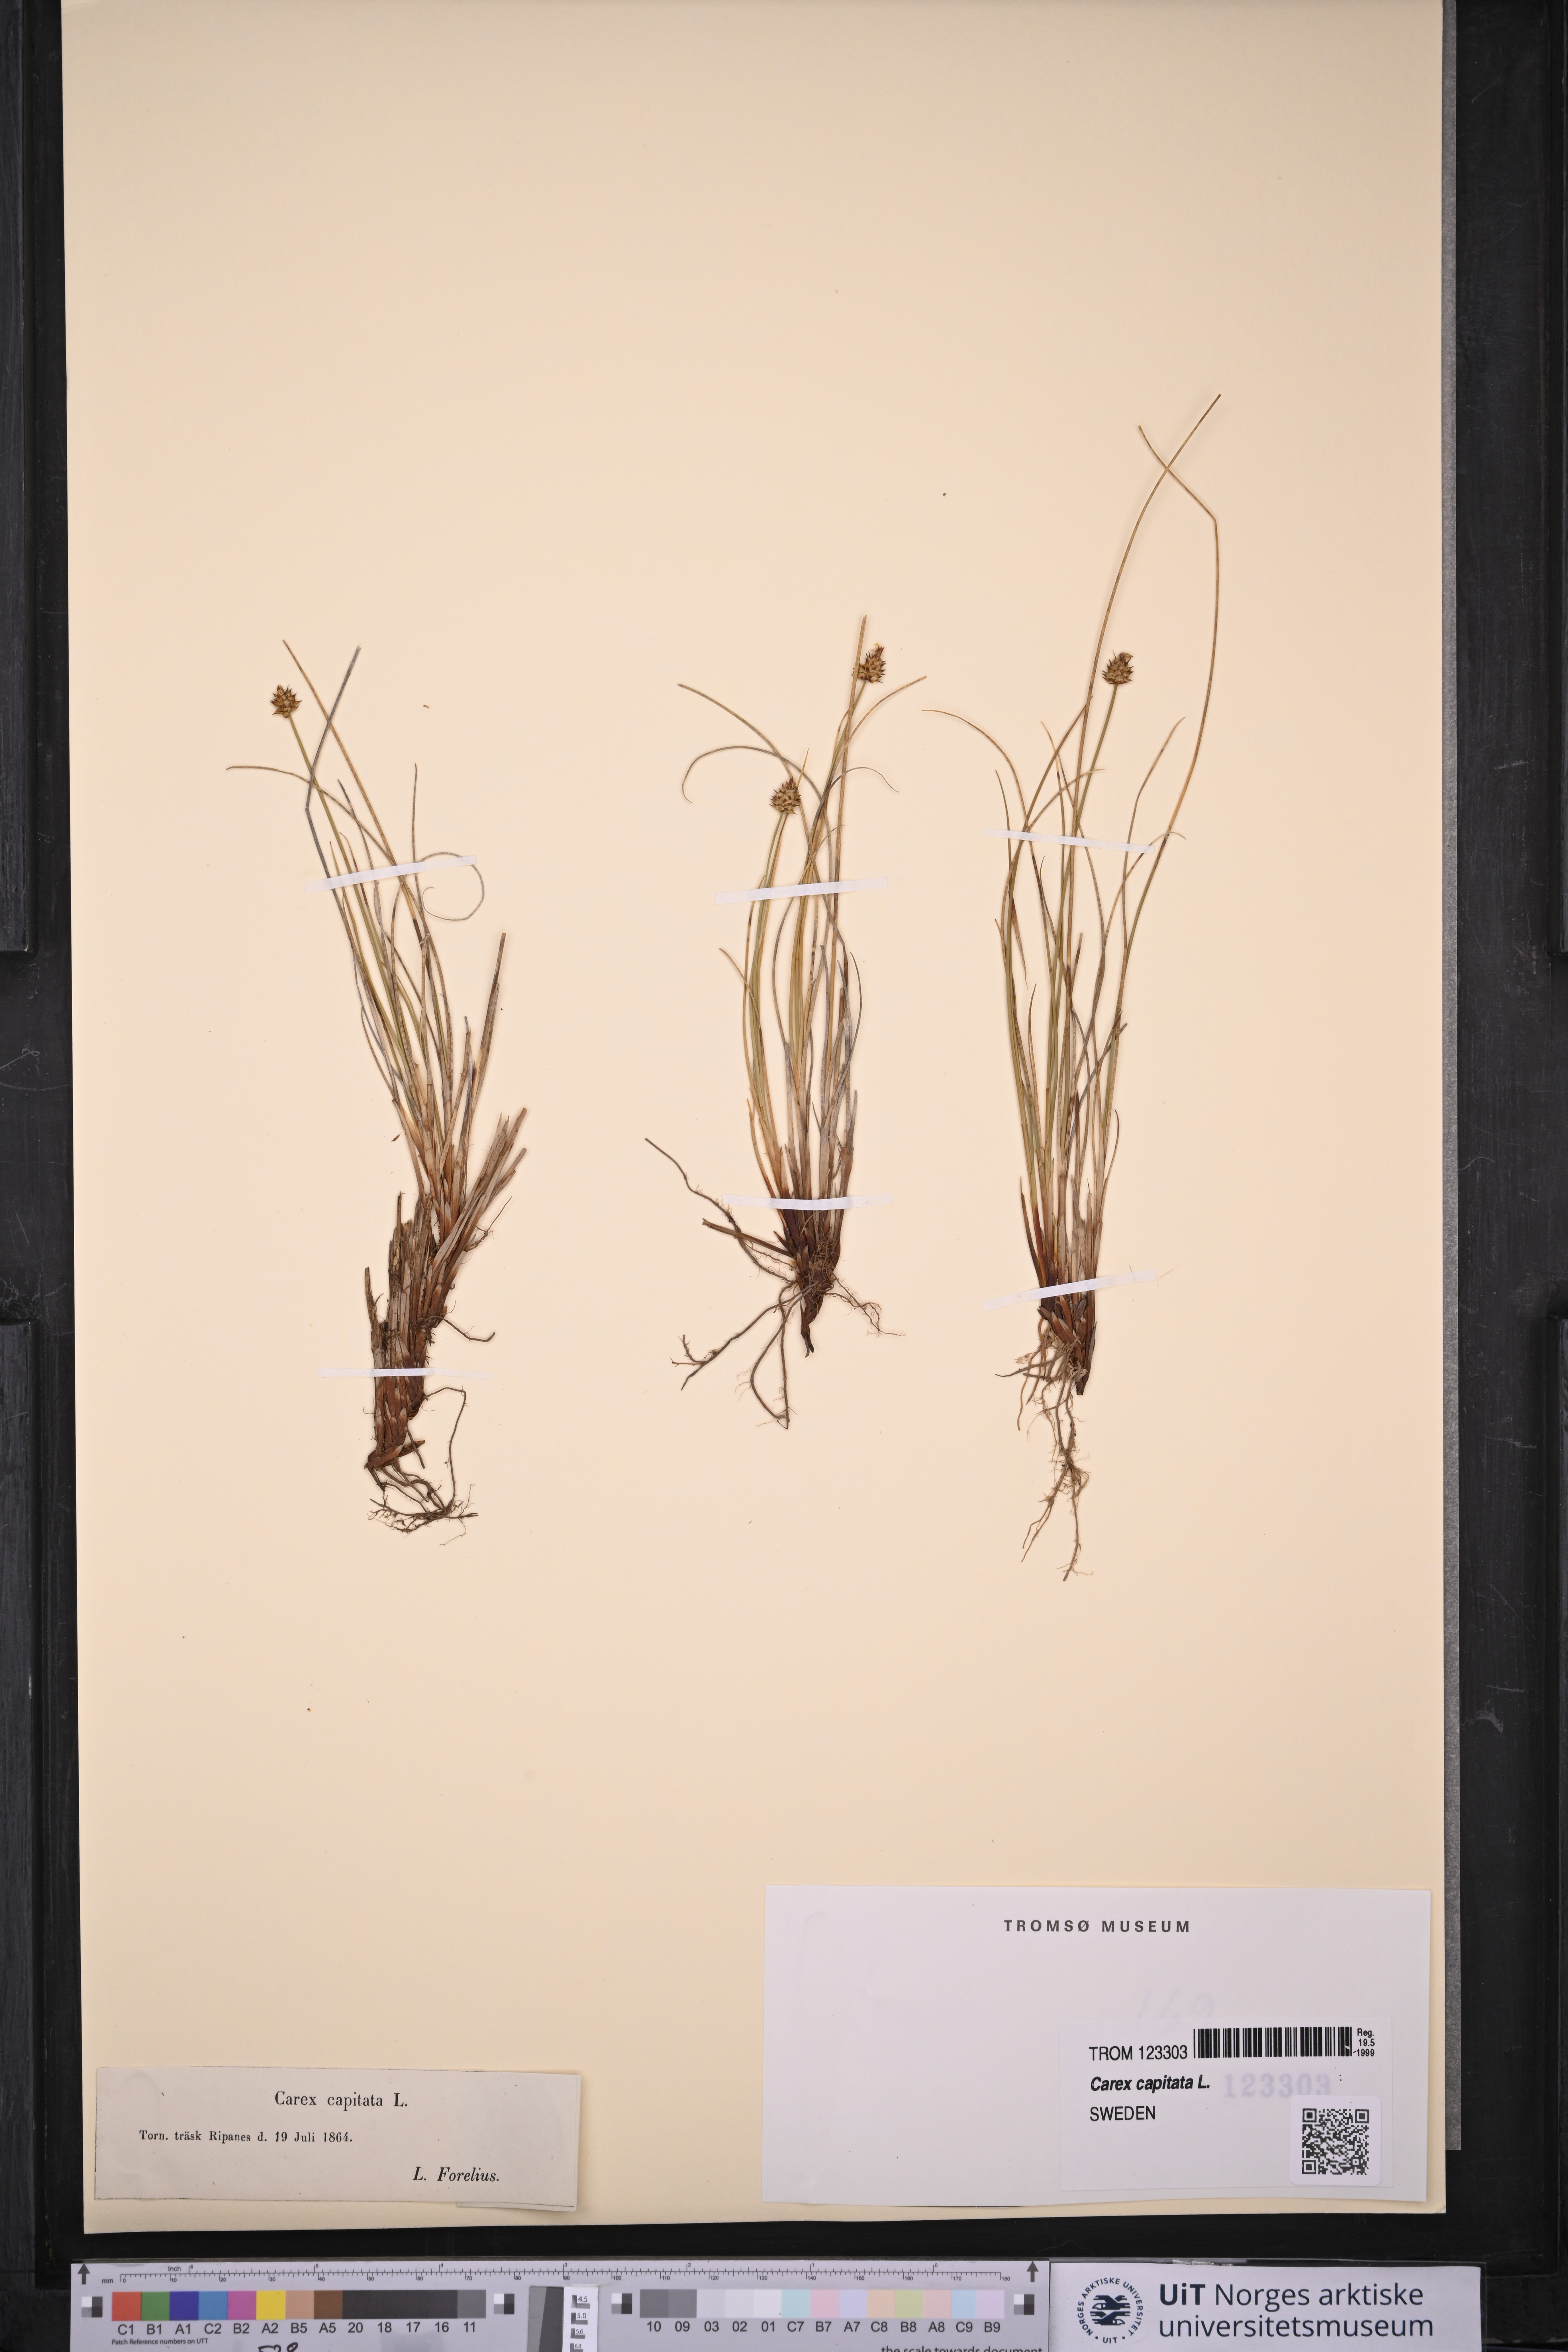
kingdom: Plantae
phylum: Tracheophyta
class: Liliopsida
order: Poales
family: Cyperaceae
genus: Carex
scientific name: Carex capitata
